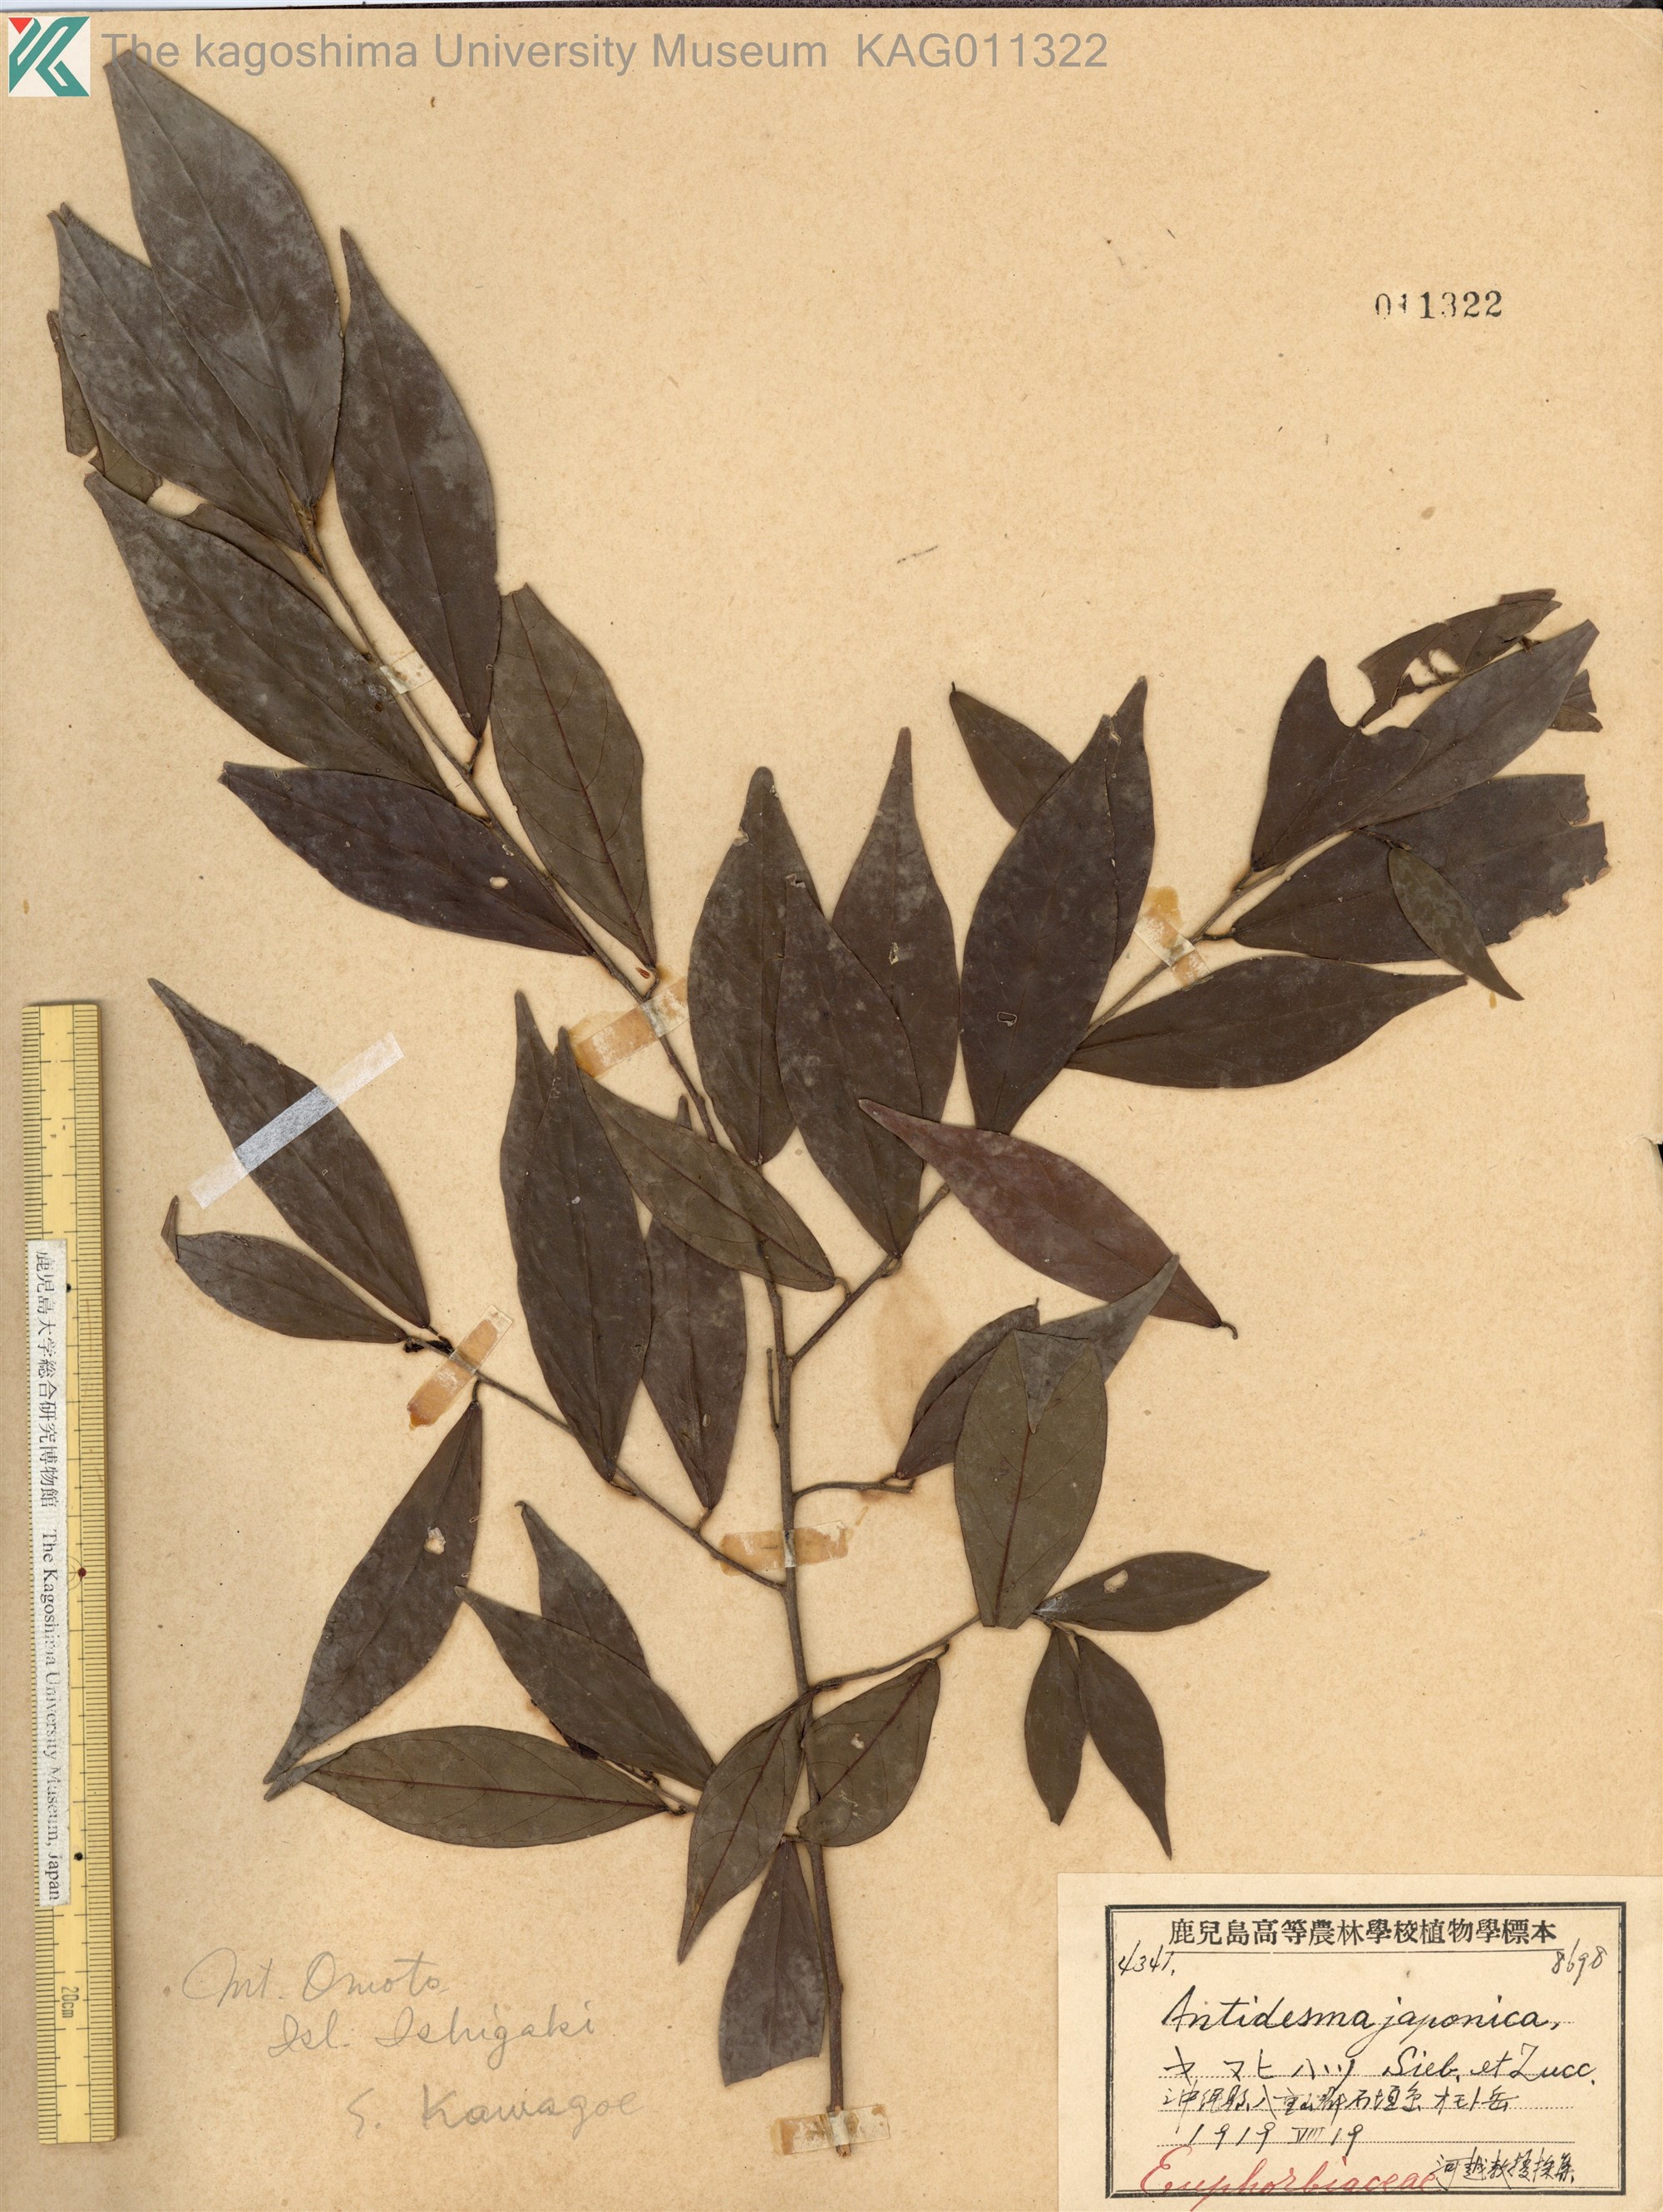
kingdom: Plantae
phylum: Tracheophyta
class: Magnoliopsida
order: Malpighiales
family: Phyllanthaceae
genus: Antidesma
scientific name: Antidesma japonicum
